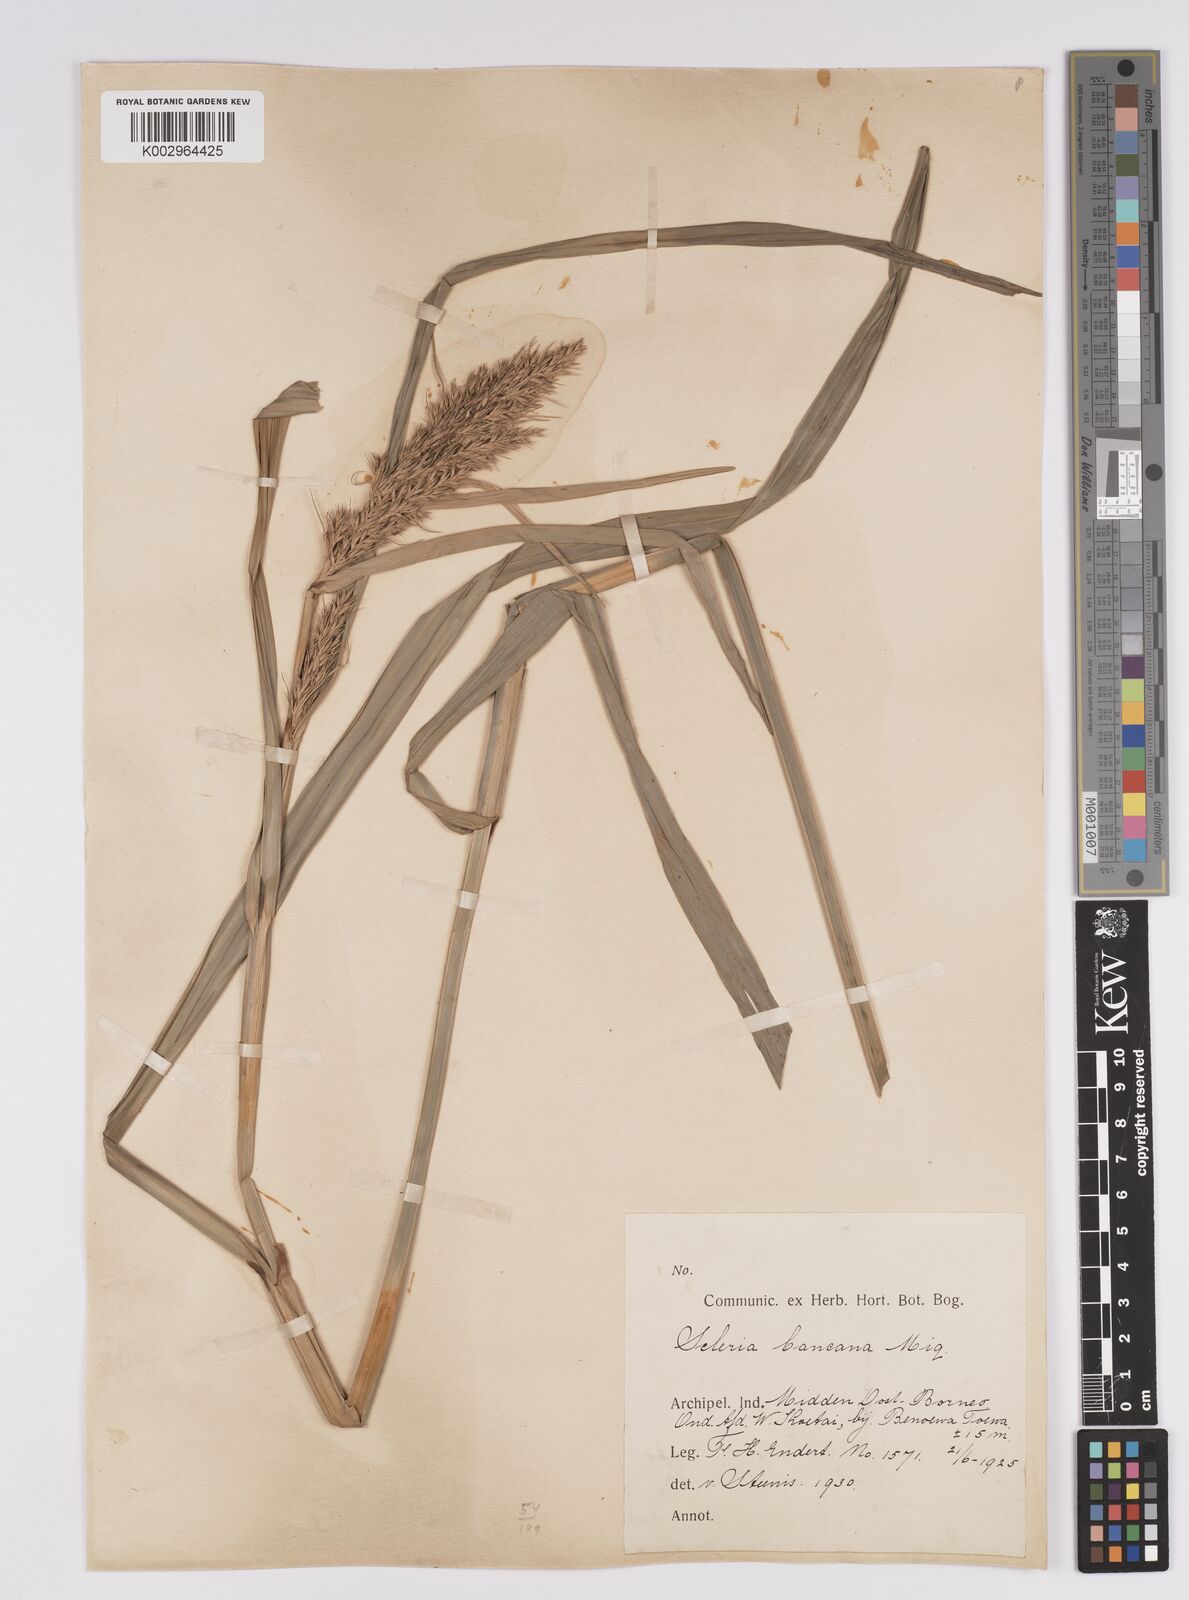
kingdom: Plantae
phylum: Tracheophyta
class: Liliopsida
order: Poales
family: Cyperaceae
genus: Scleria
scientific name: Scleria ciliaris
